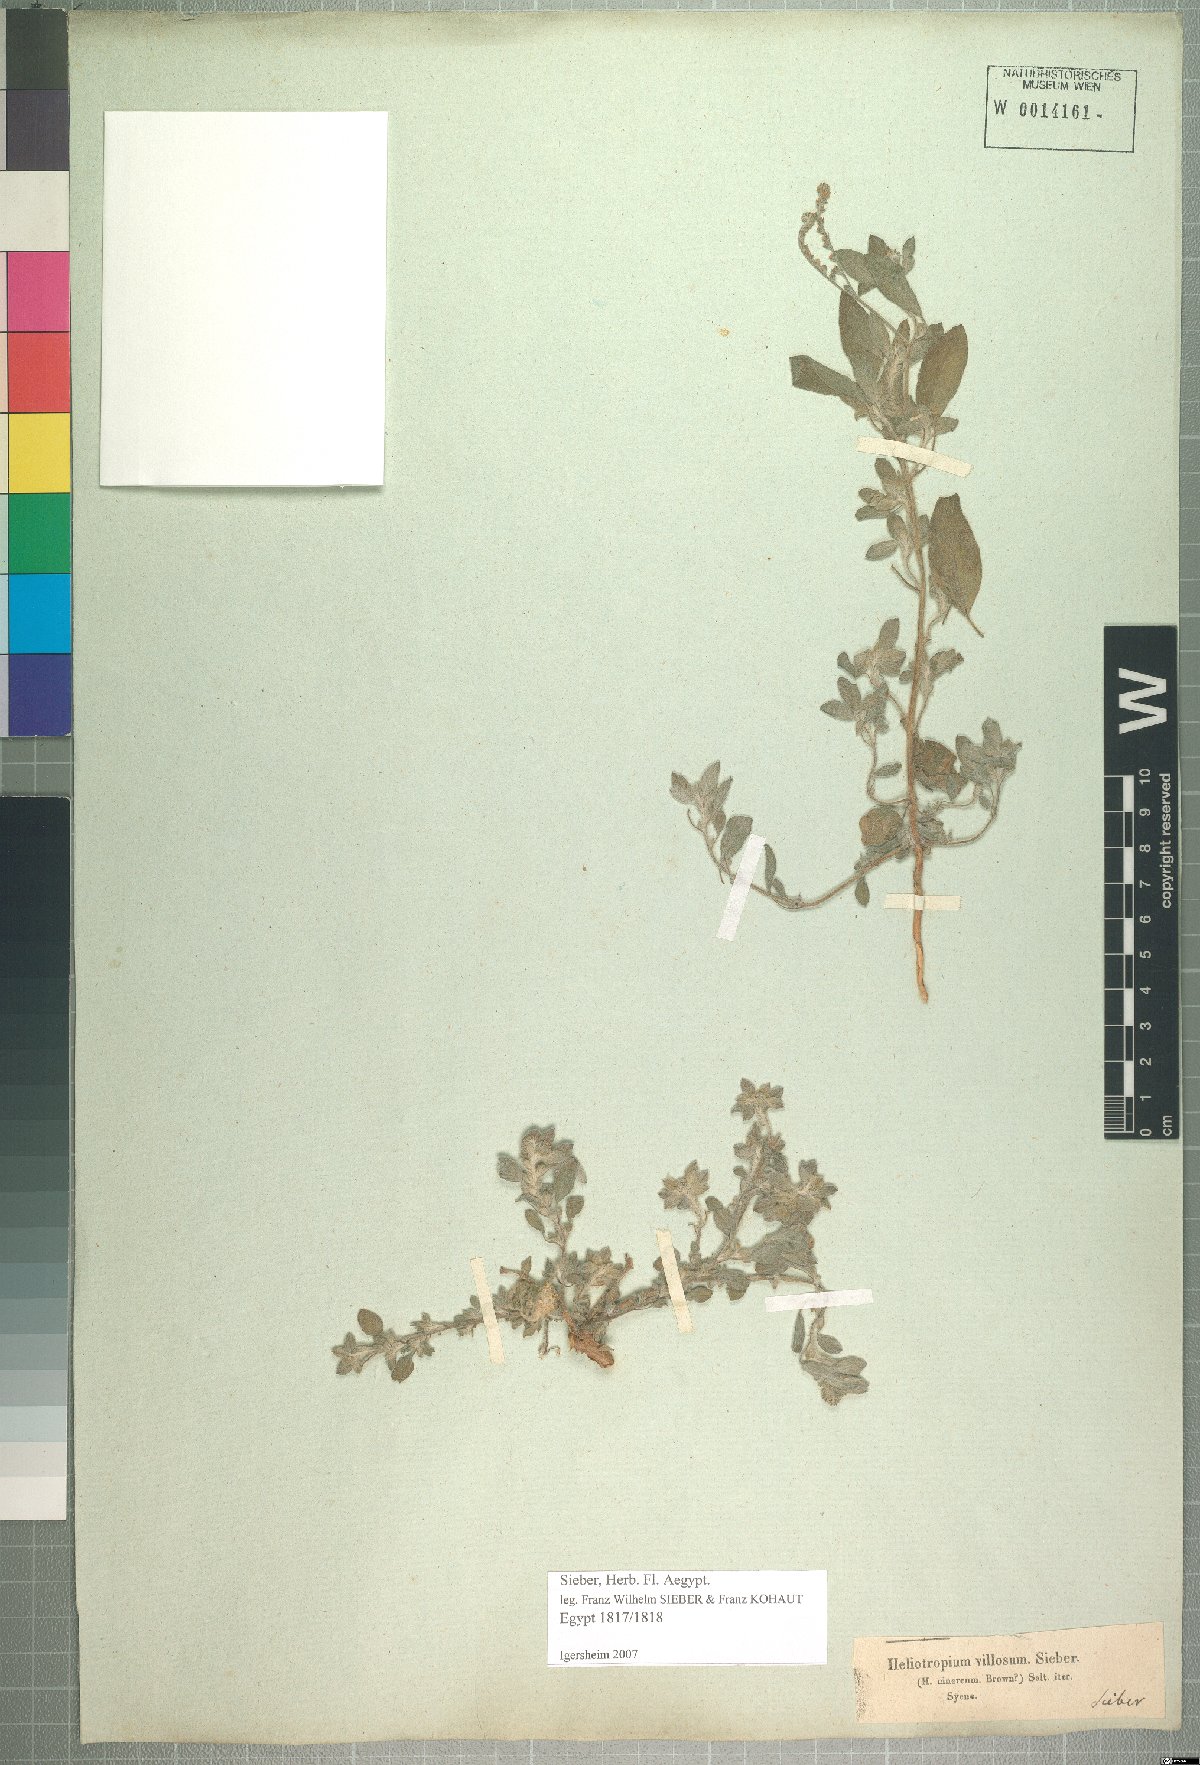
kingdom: Plantae
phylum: Tracheophyta
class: Magnoliopsida
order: Boraginales
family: Heliotropiaceae
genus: Euploca
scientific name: Euploca ovalifolia
